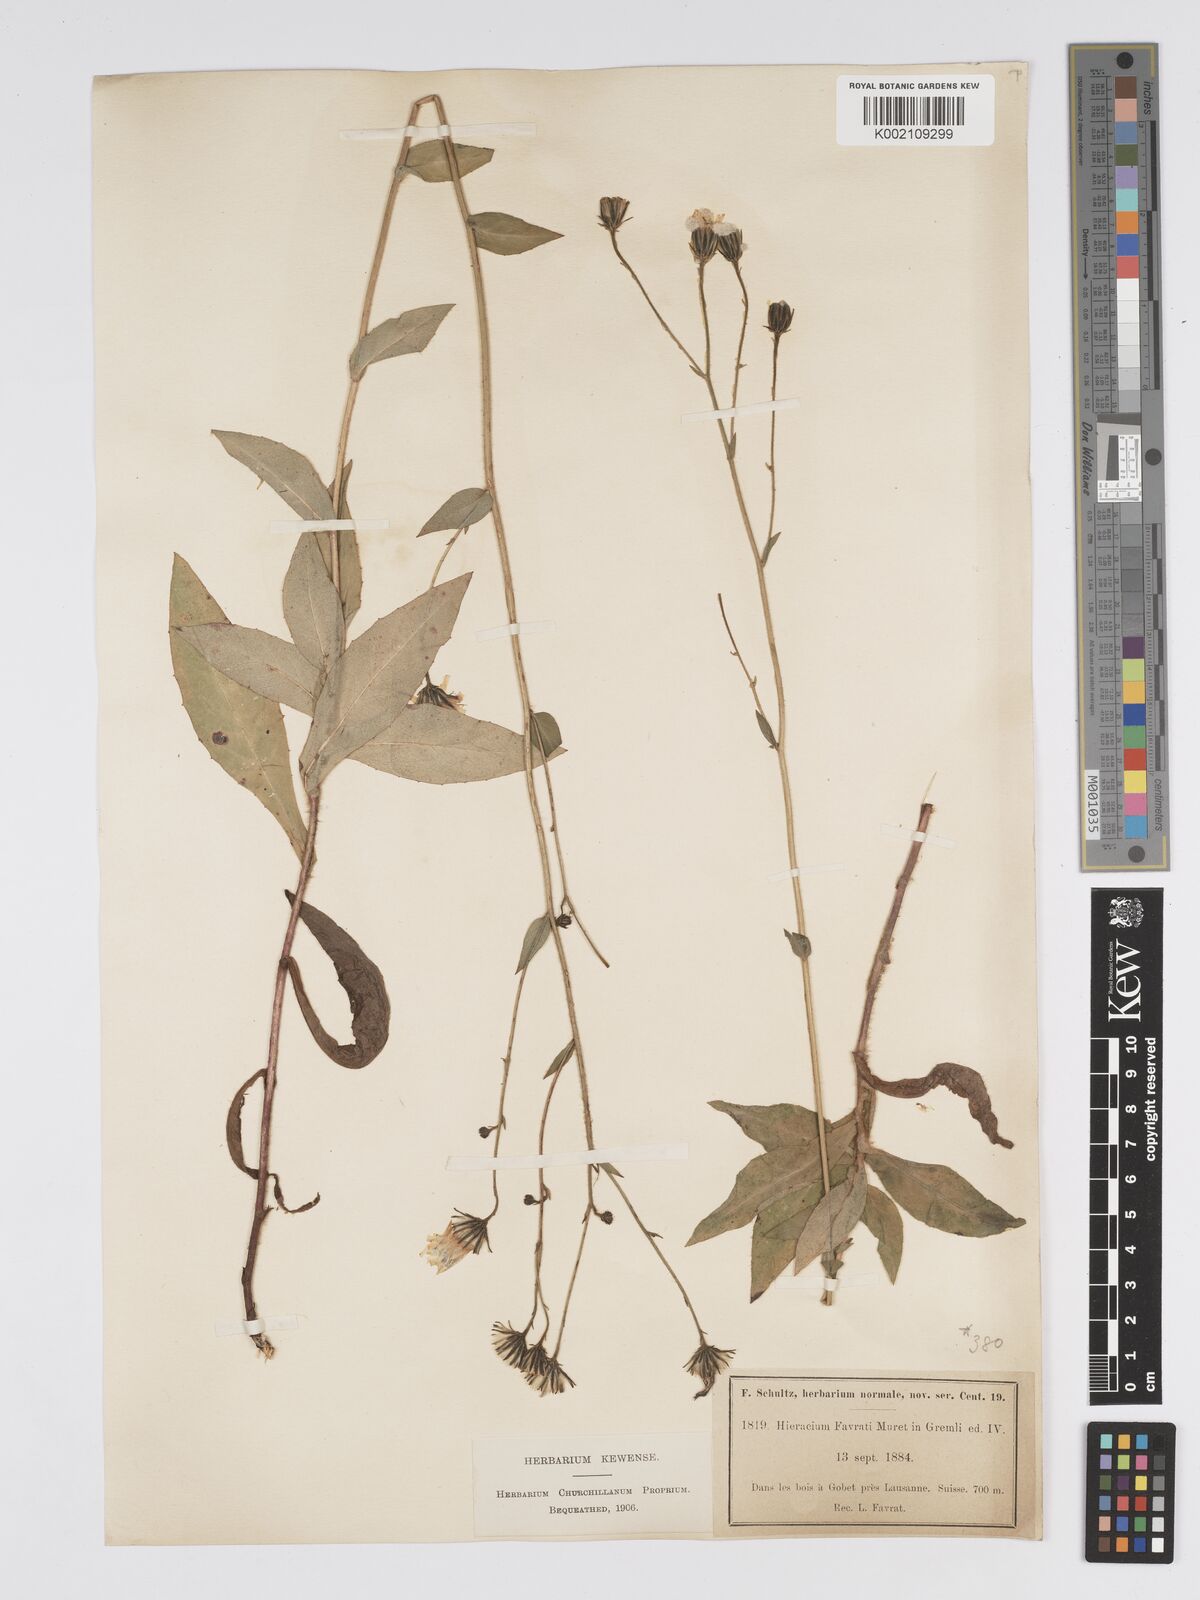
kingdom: Plantae
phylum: Tracheophyta
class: Magnoliopsida
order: Asterales
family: Asteraceae
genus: Hieracium
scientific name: Hieracium favratii
